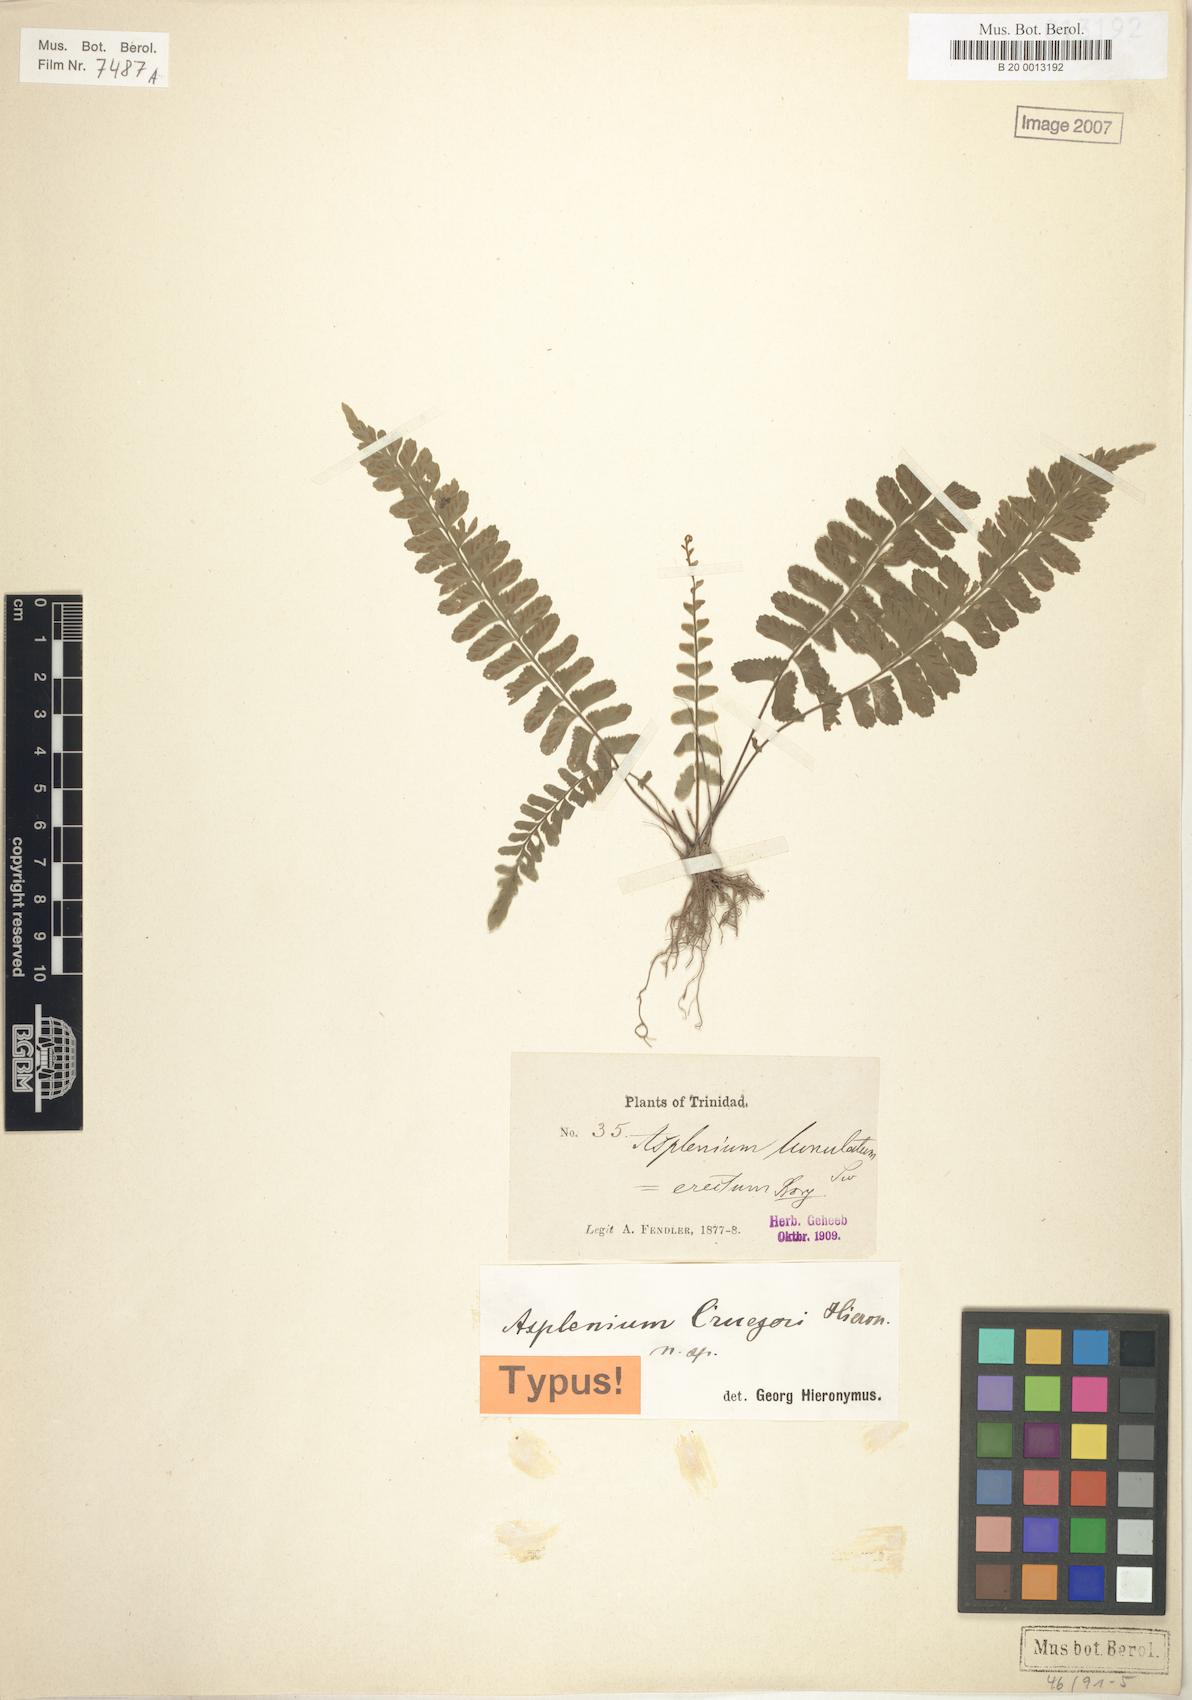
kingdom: Plantae
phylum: Tracheophyta
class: Polypodiopsida
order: Polypodiales
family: Aspleniaceae
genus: Asplenium
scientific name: Asplenium cruegeri
